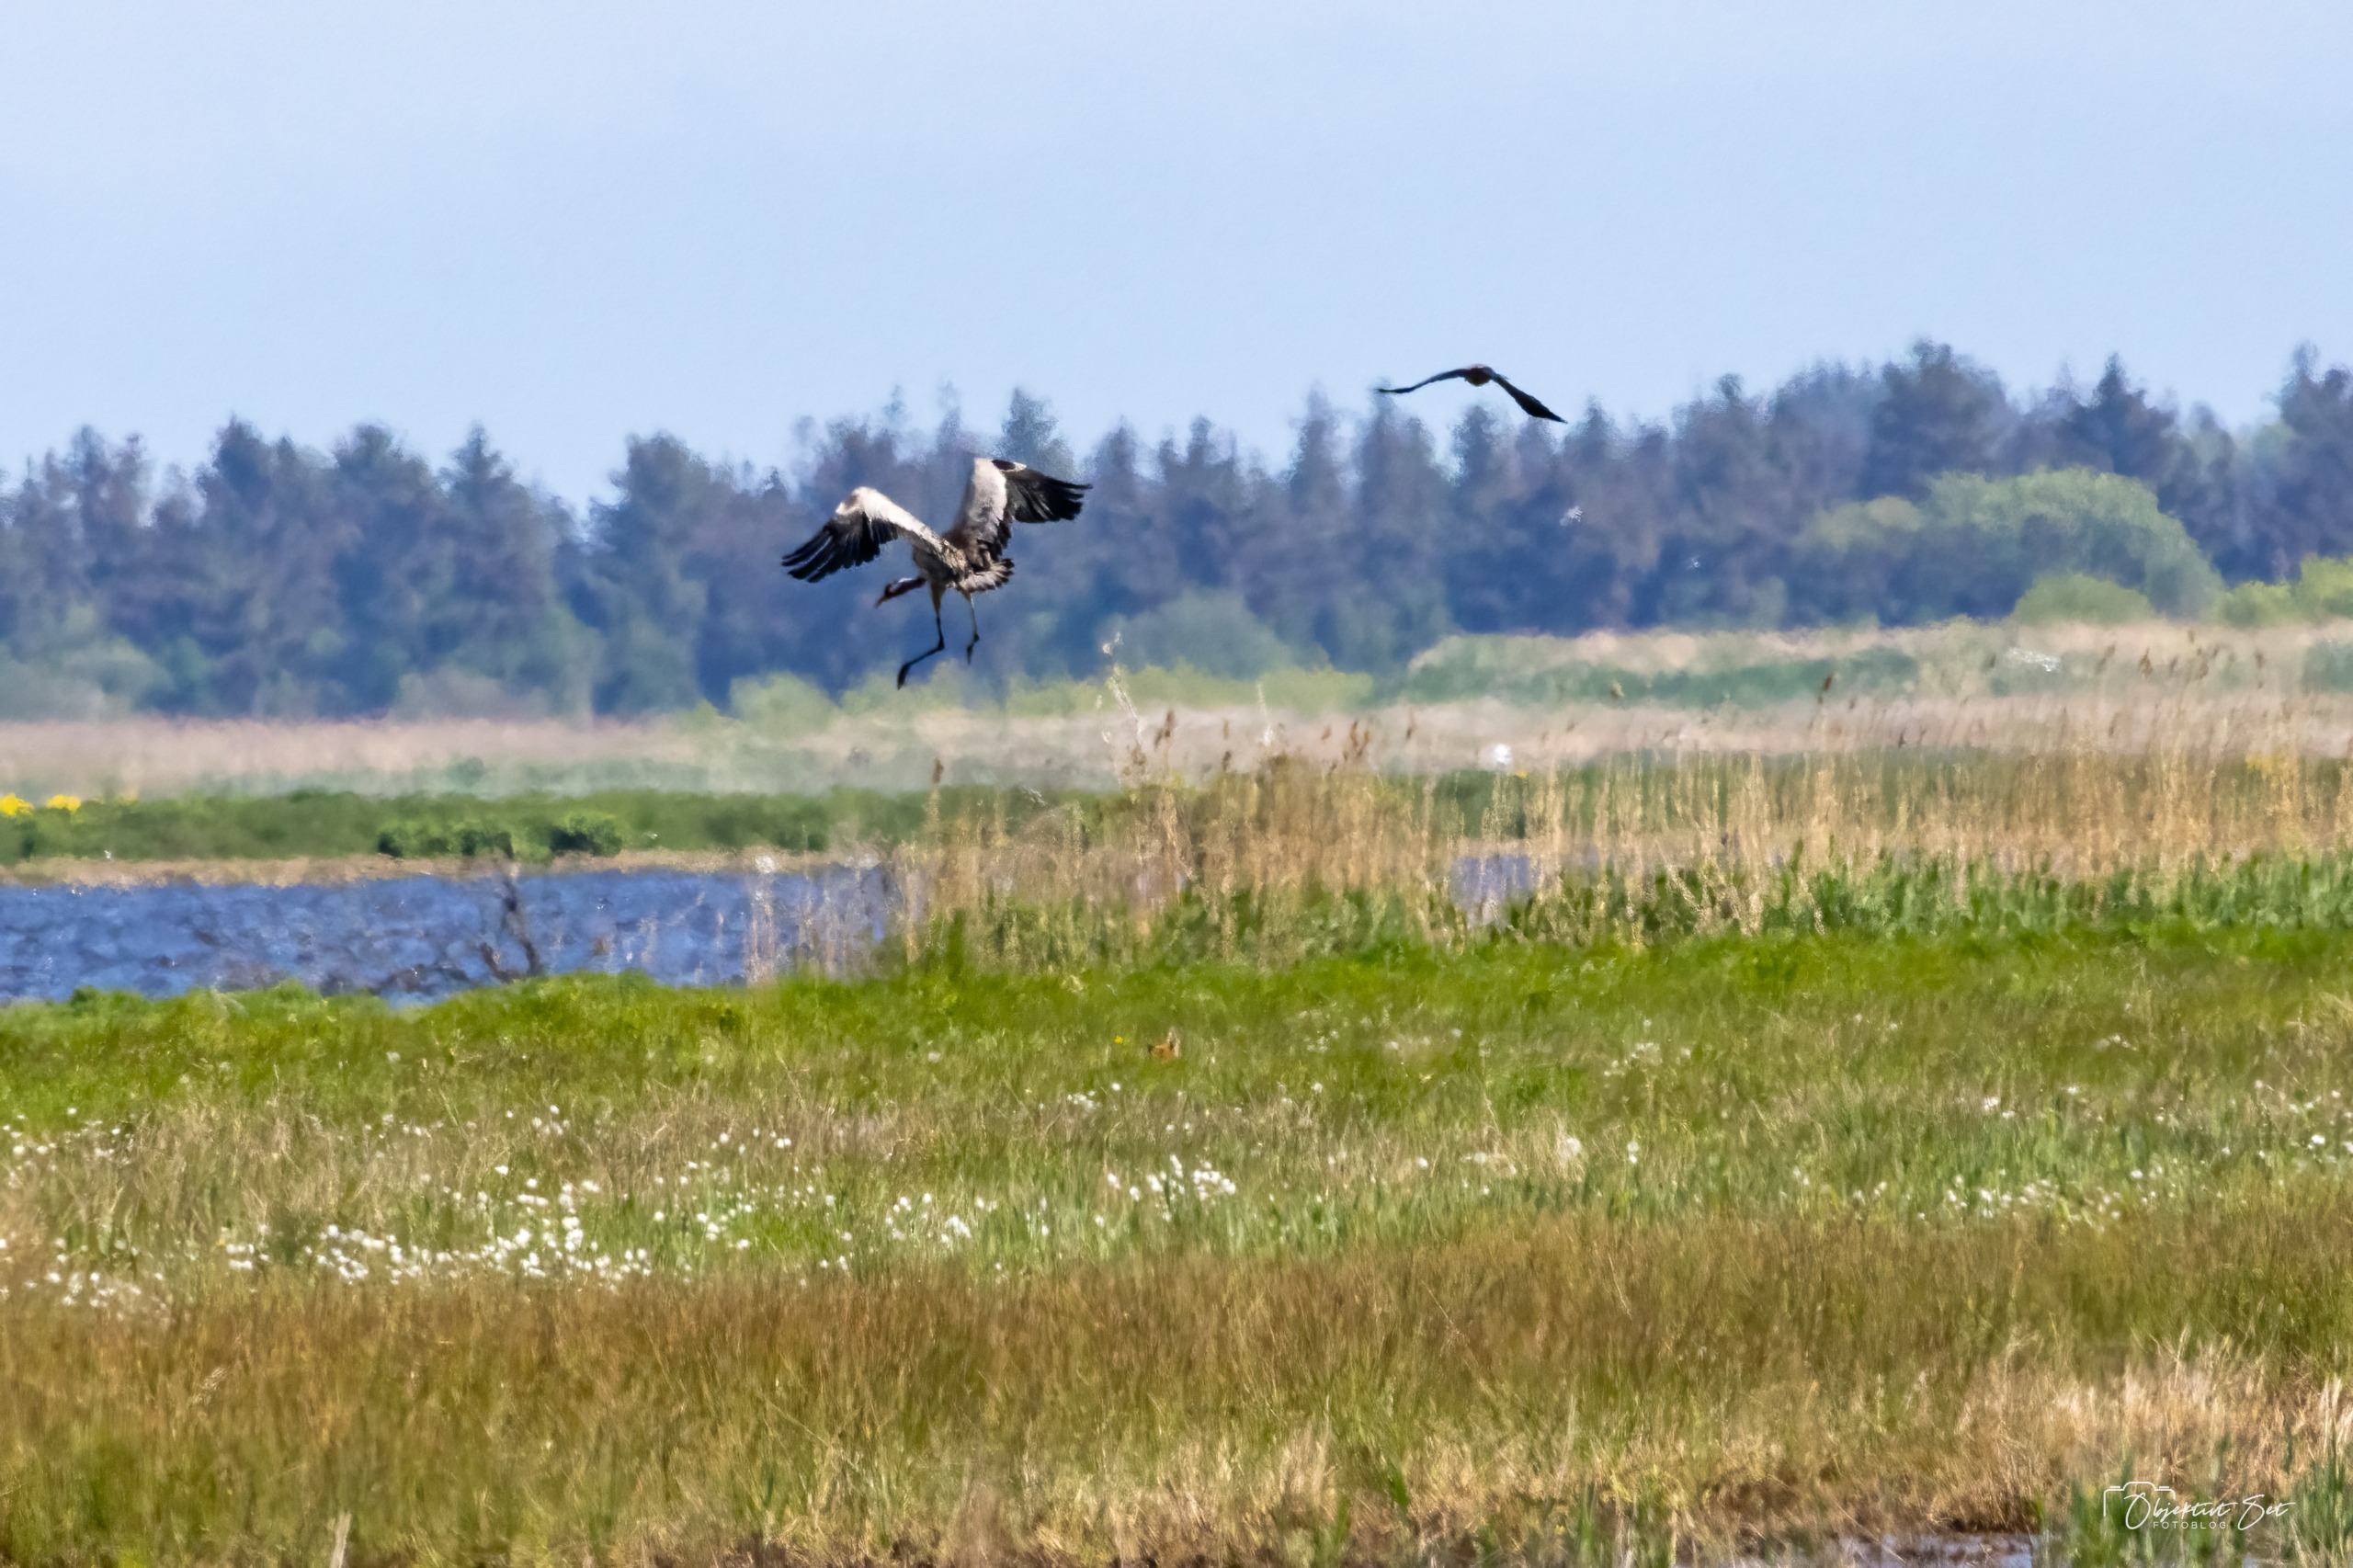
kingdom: Animalia
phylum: Chordata
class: Aves
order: Gruiformes
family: Gruidae
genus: Grus
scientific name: Grus grus
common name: Trane
